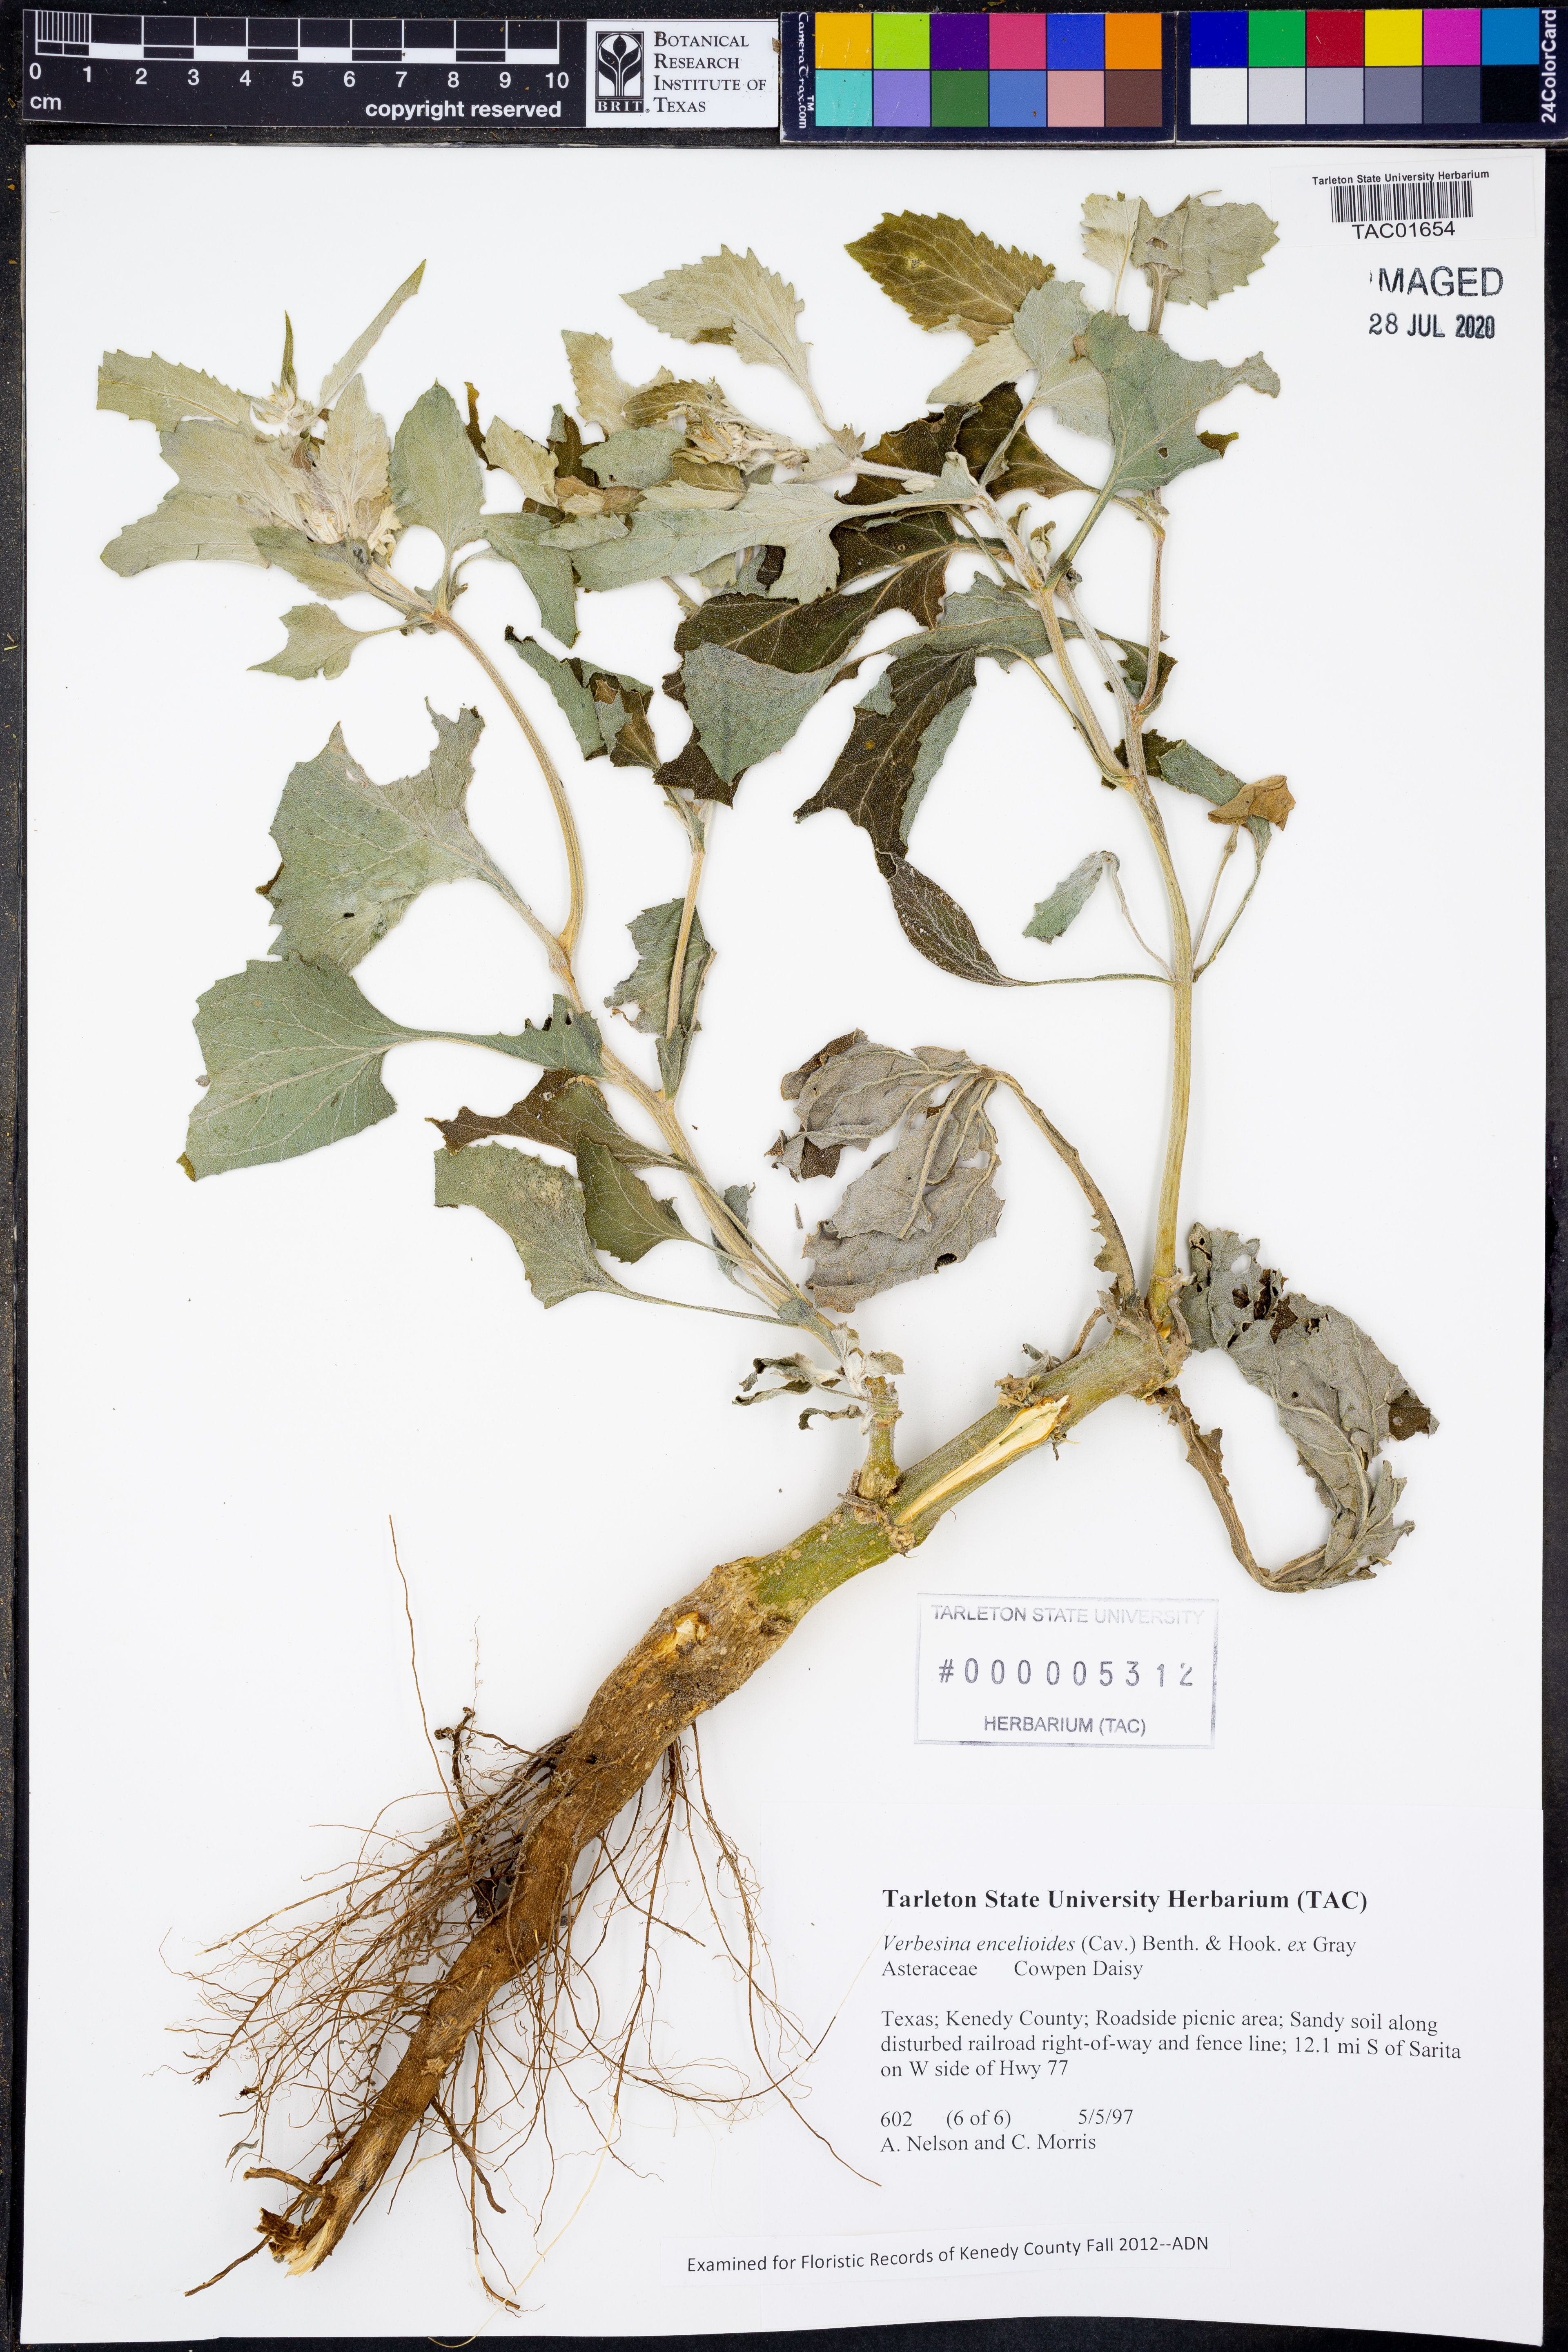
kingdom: Plantae
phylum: Tracheophyta
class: Magnoliopsida
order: Asterales
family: Asteraceae
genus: Verbesina
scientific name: Verbesina encelioides
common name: Golden crownbeard
